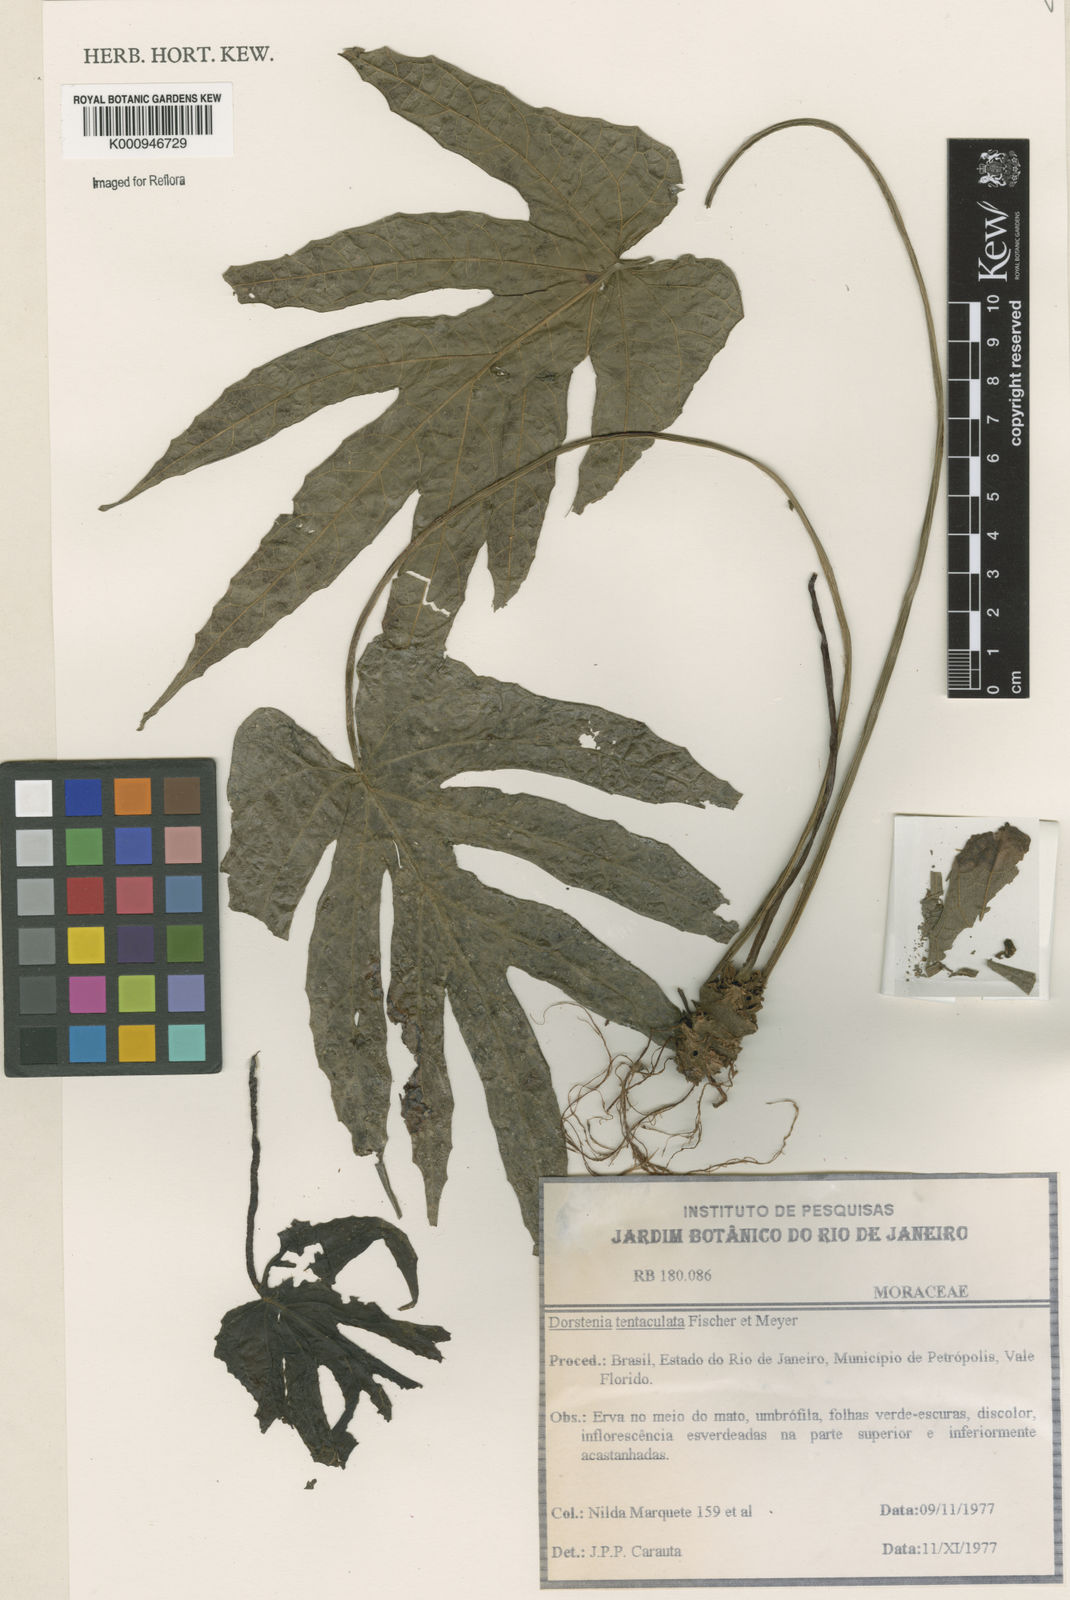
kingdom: Plantae
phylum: Tracheophyta
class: Magnoliopsida
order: Rosales
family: Moraceae
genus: Dorstenia
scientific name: Dorstenia tentaculata
